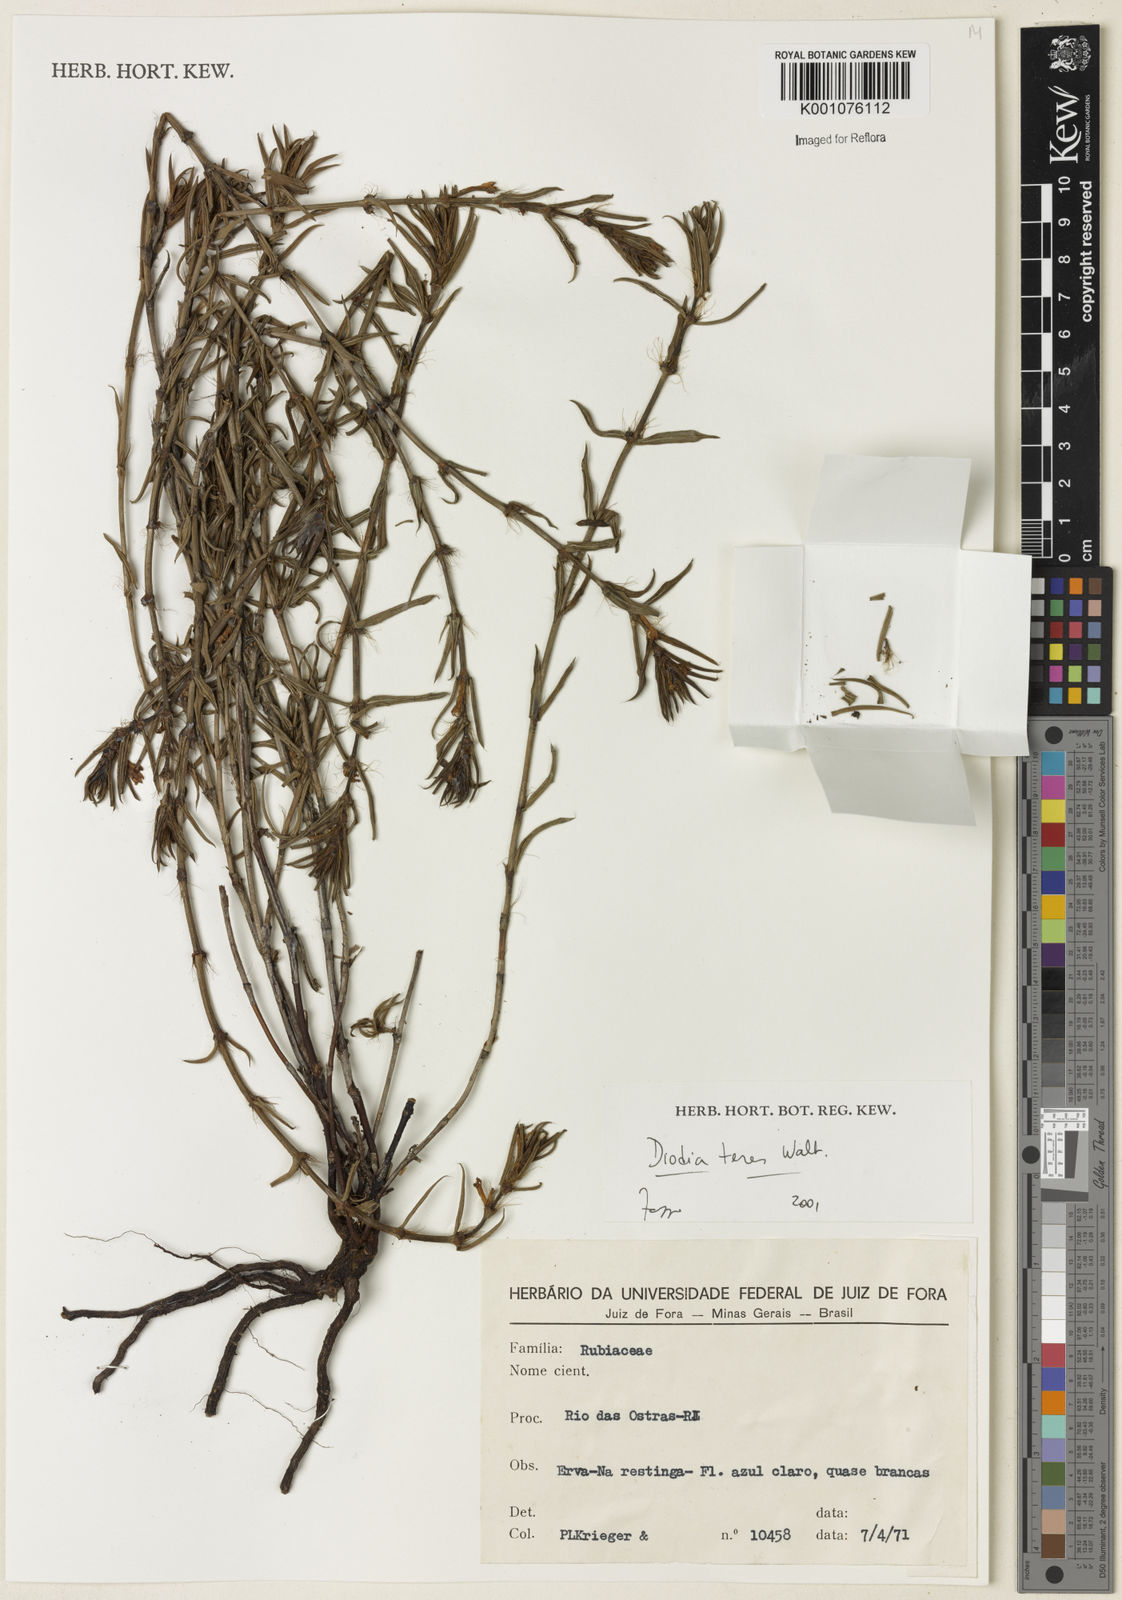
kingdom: Plantae
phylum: Tracheophyta
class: Magnoliopsida
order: Gentianales
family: Rubiaceae
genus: Hexasepalum
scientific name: Hexasepalum teres
